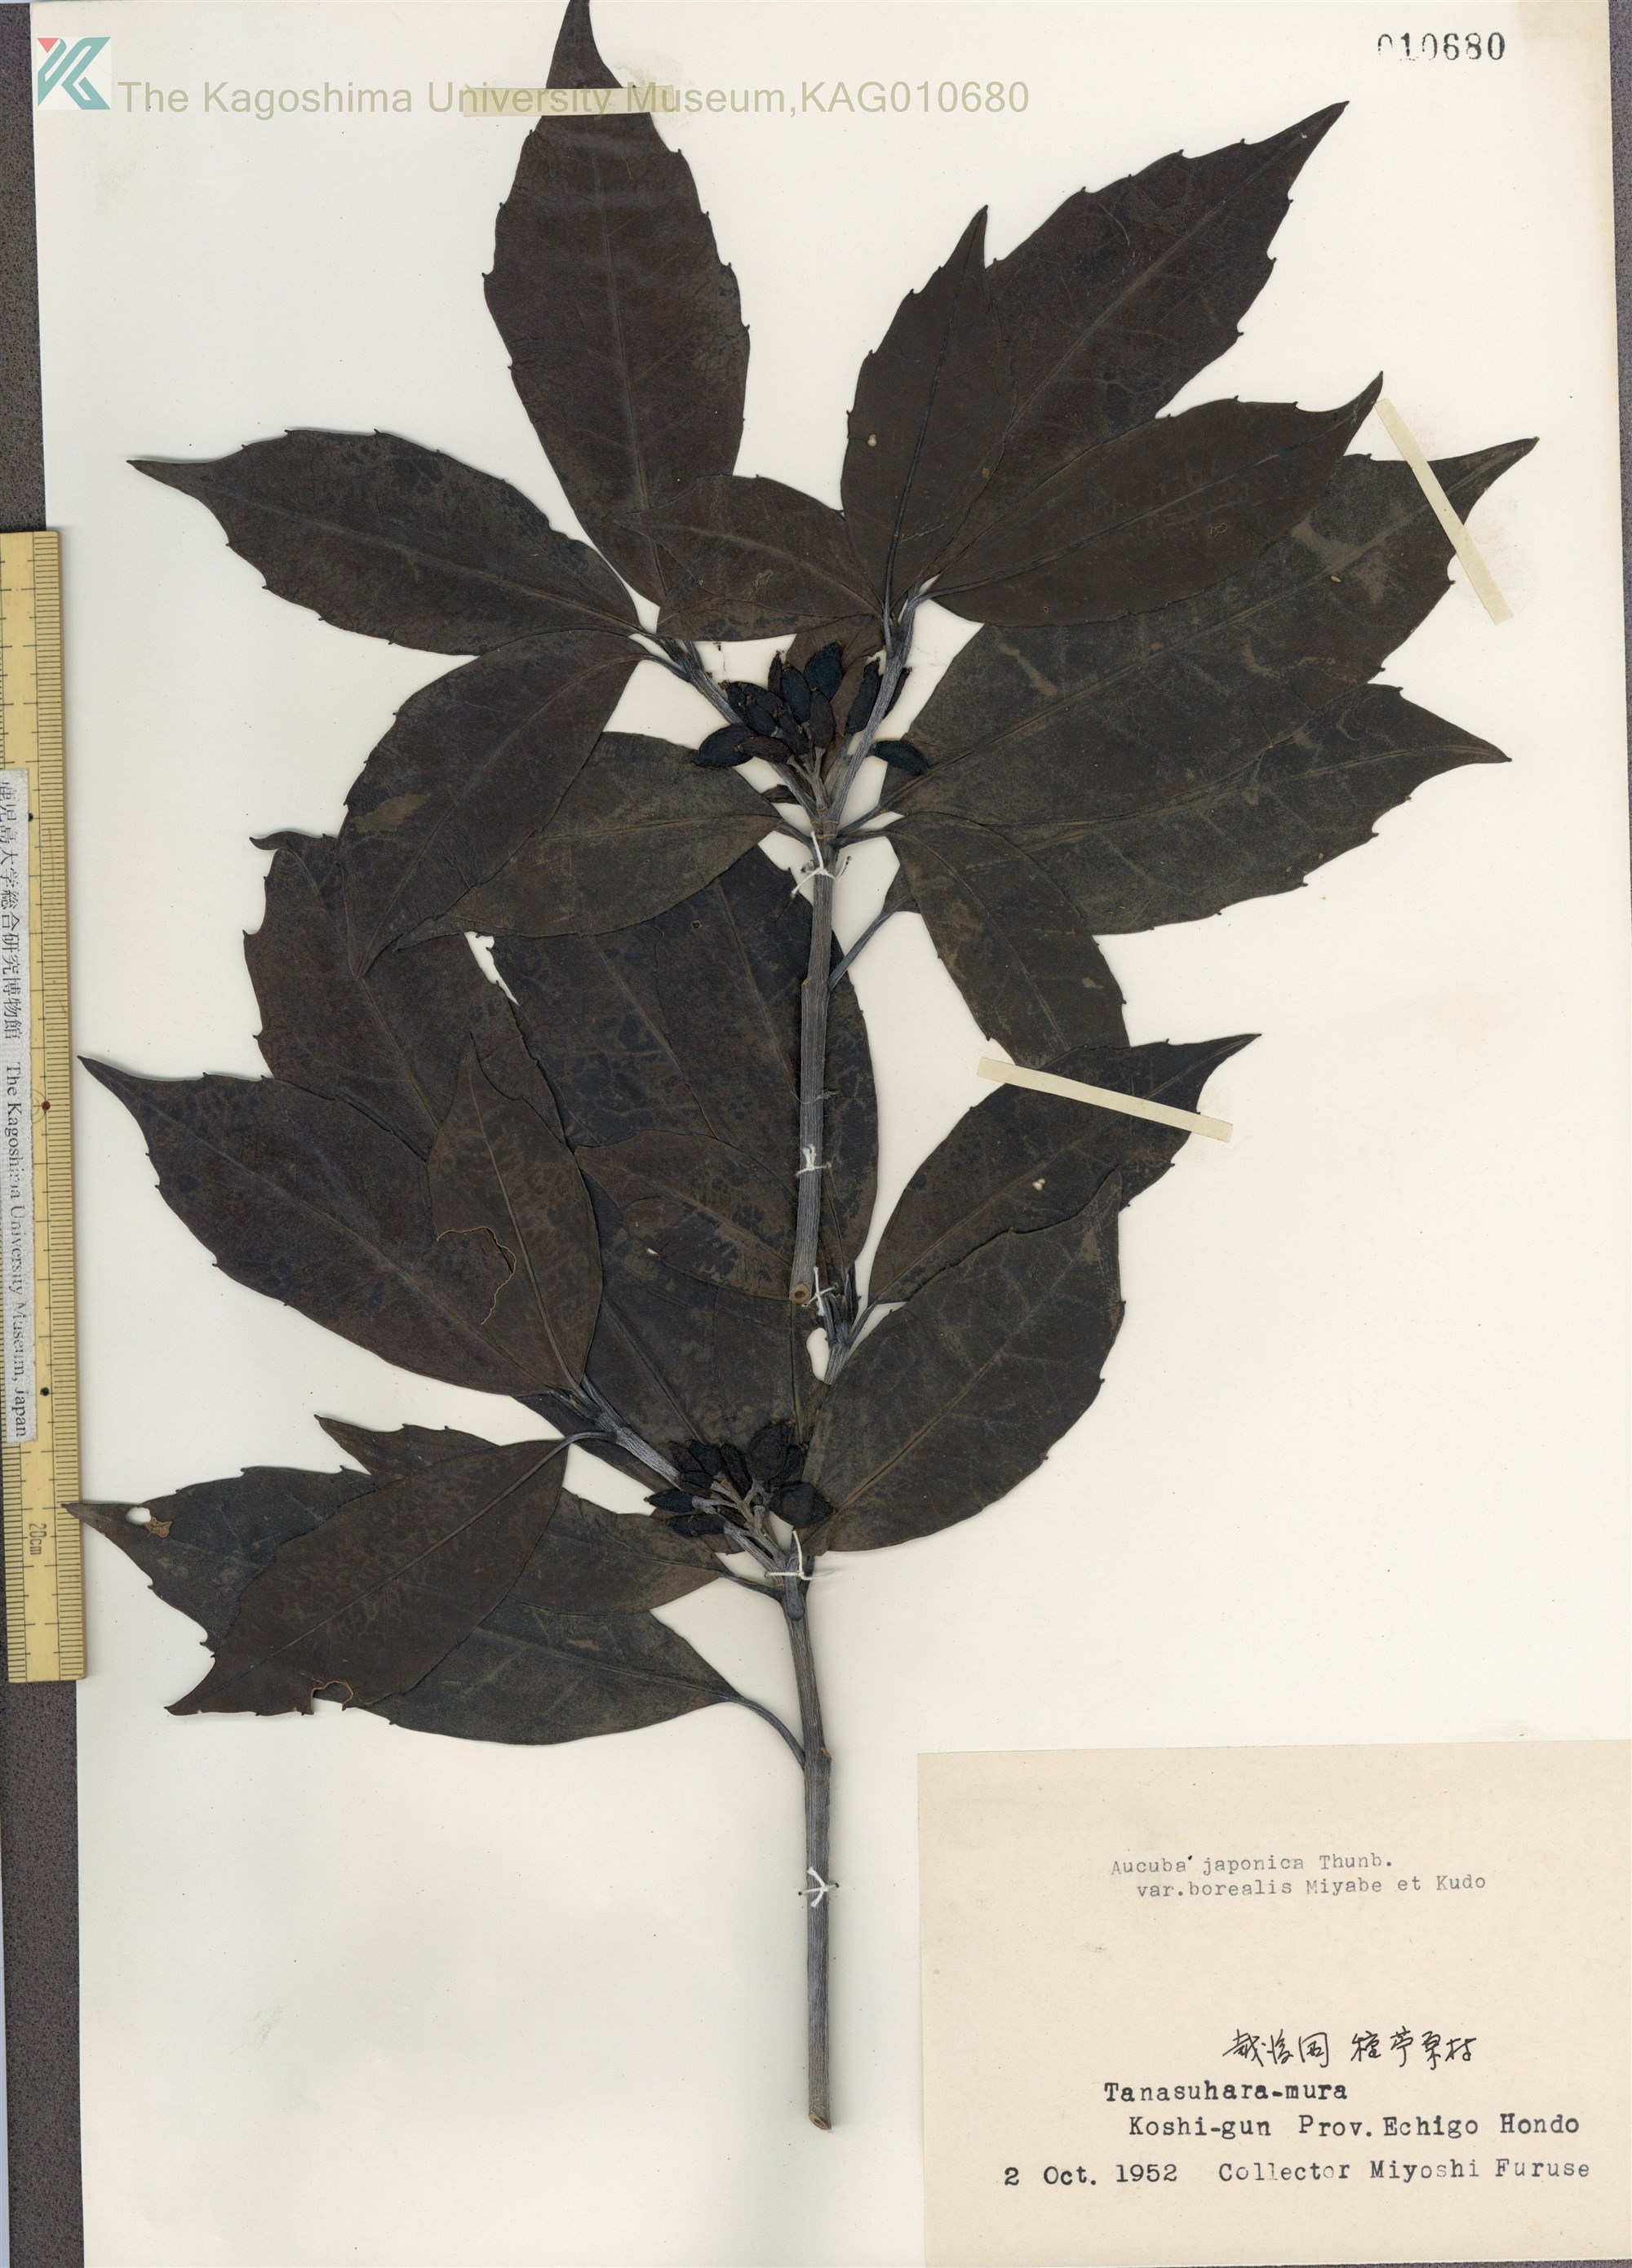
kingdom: Plantae
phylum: Tracheophyta
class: Magnoliopsida
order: Garryales
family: Garryaceae
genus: Aucuba
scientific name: Aucuba japonica
